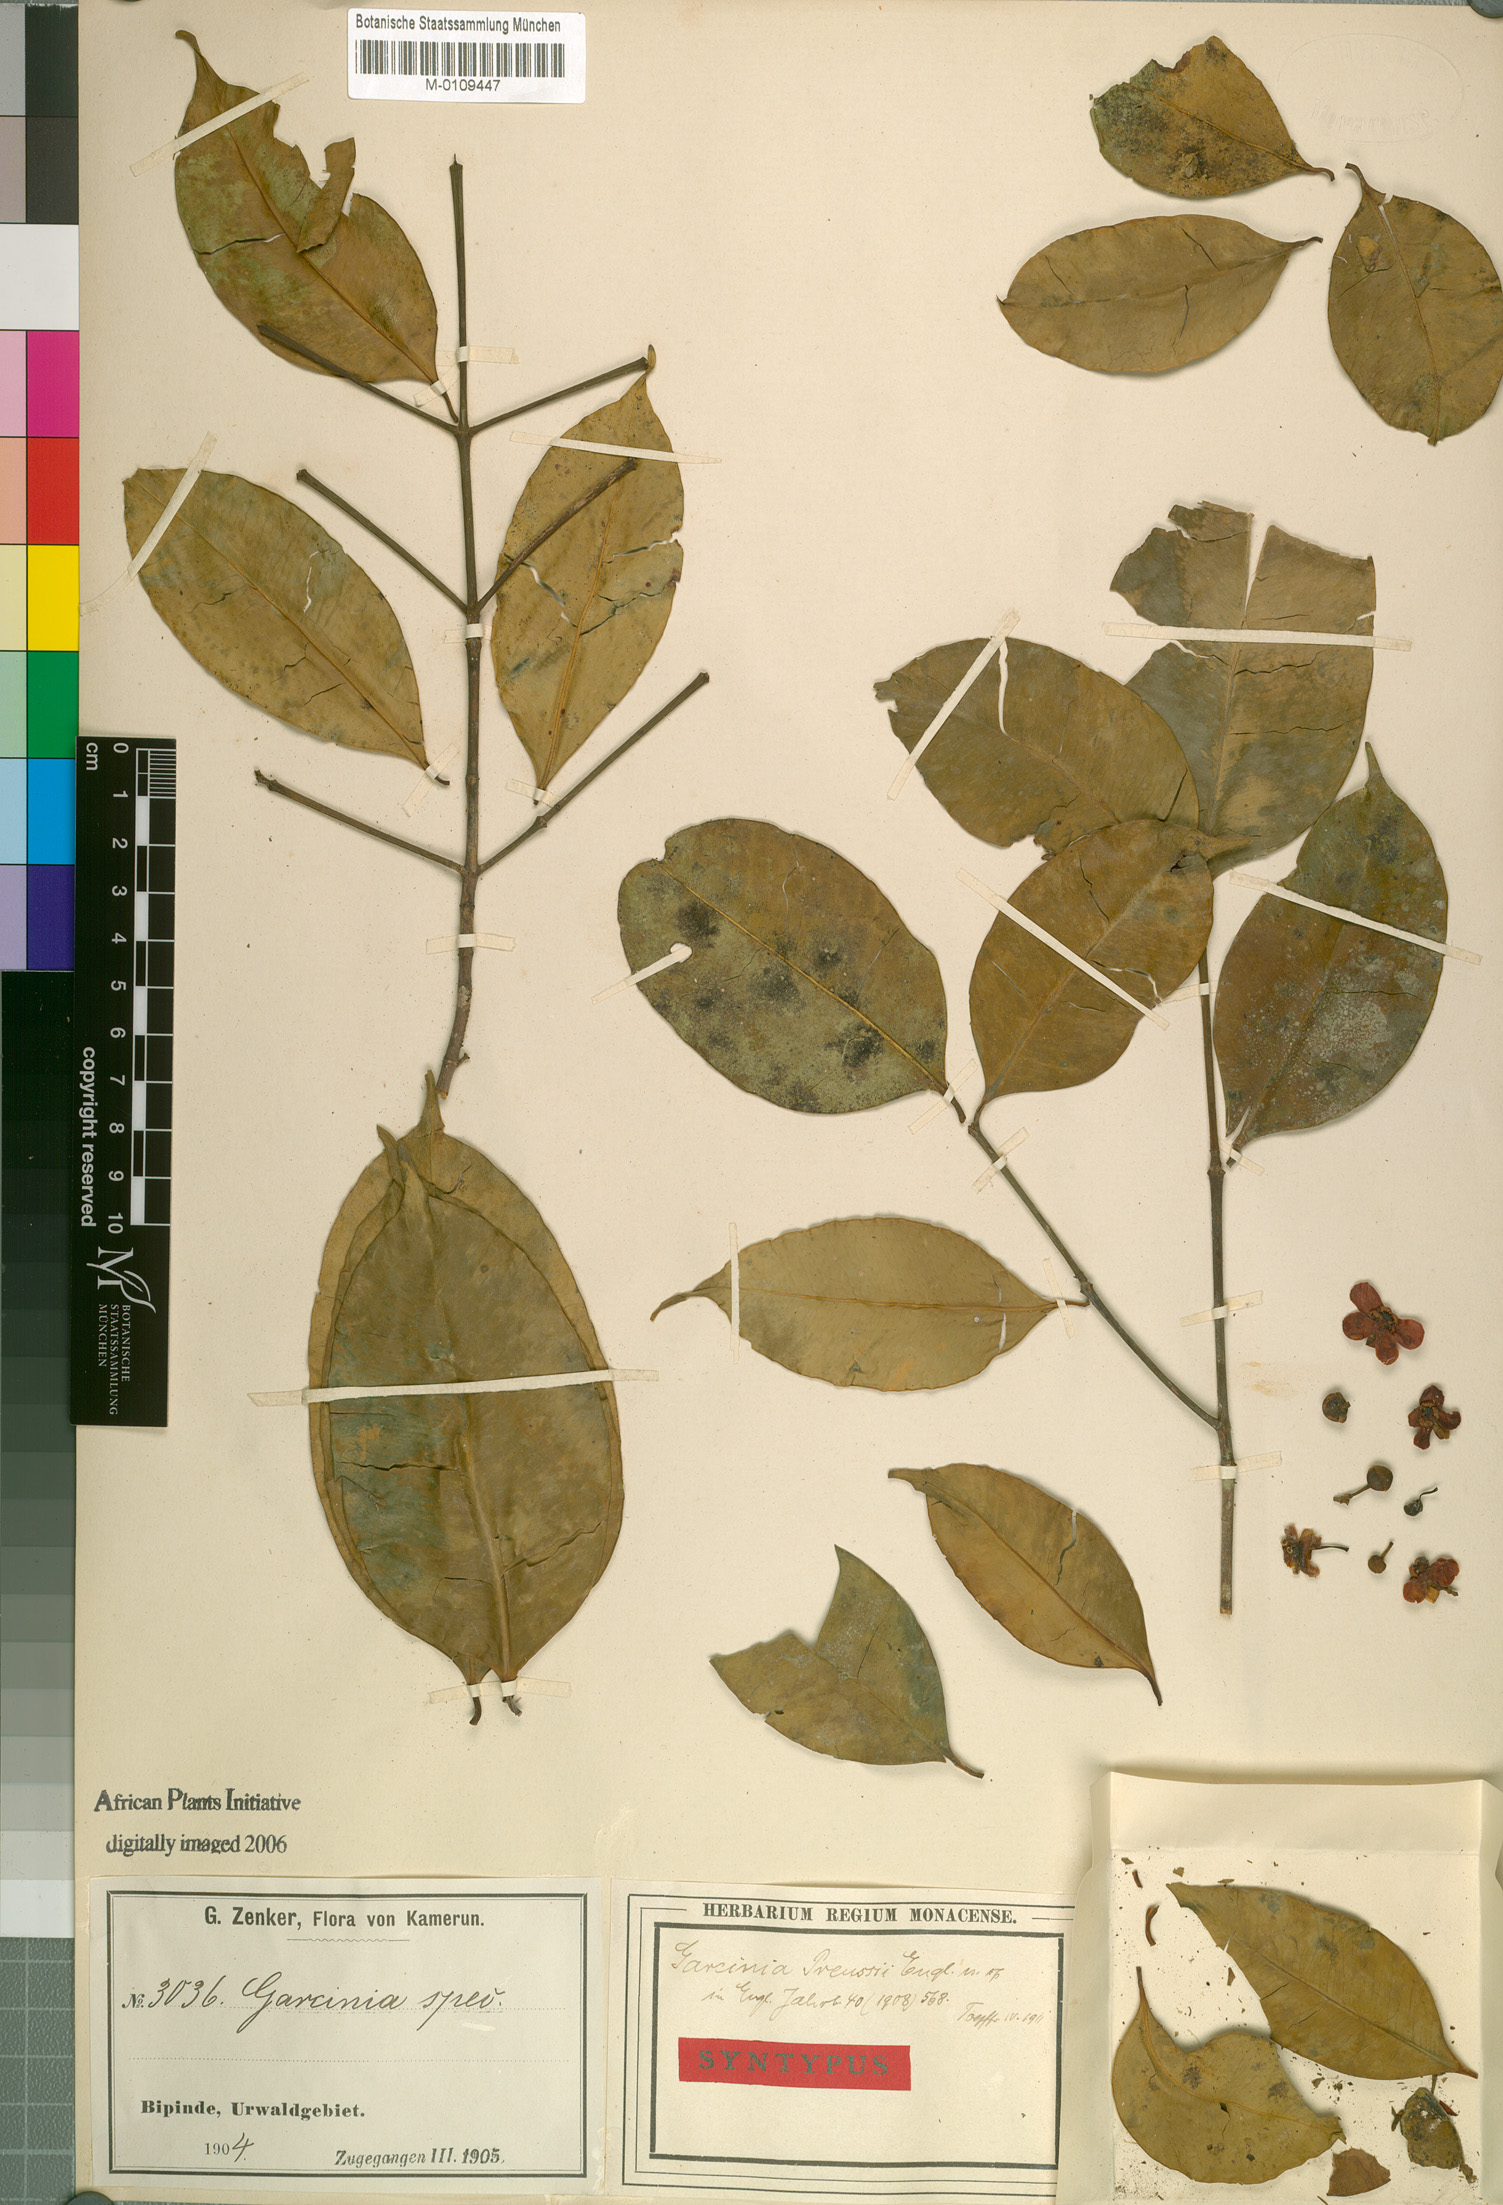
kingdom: Plantae
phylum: Tracheophyta
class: Magnoliopsida
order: Malpighiales
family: Clusiaceae
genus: Garcinia
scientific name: Garcinia preussii
